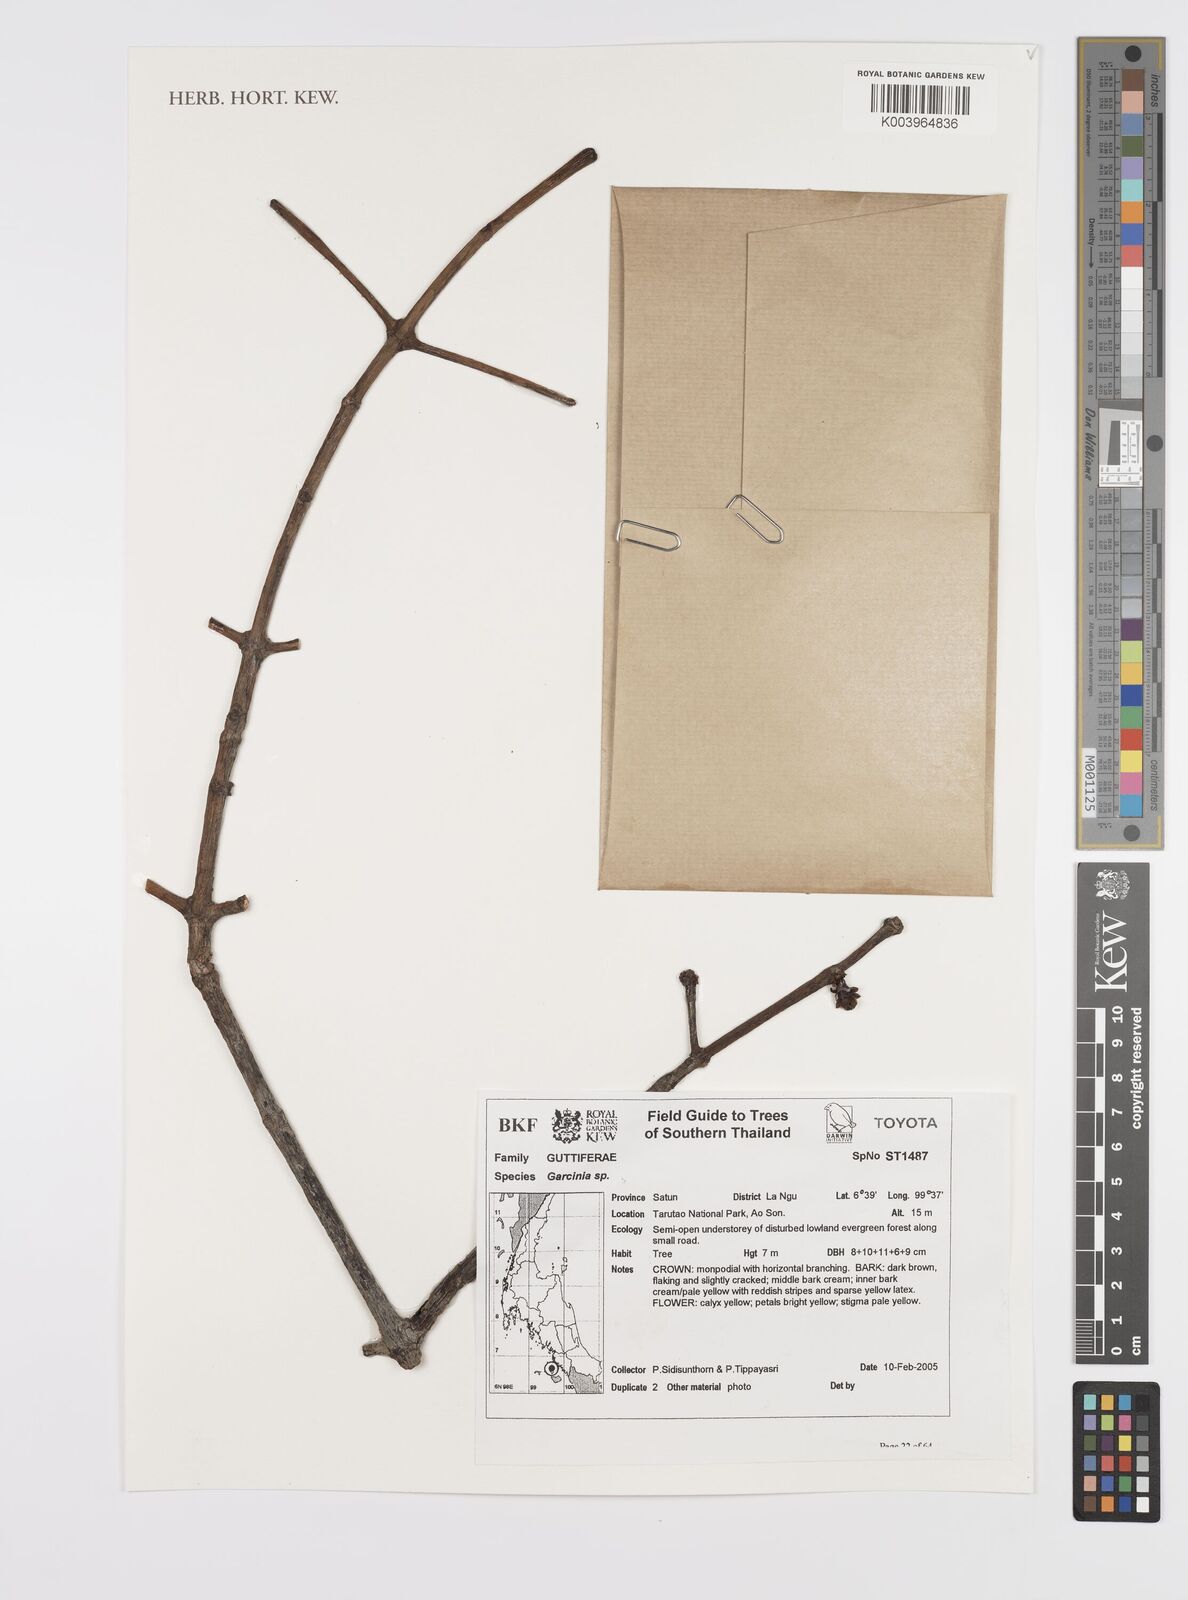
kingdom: Plantae
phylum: Tracheophyta
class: Magnoliopsida
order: Malpighiales
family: Clusiaceae
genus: Garcinia
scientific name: Garcinia
